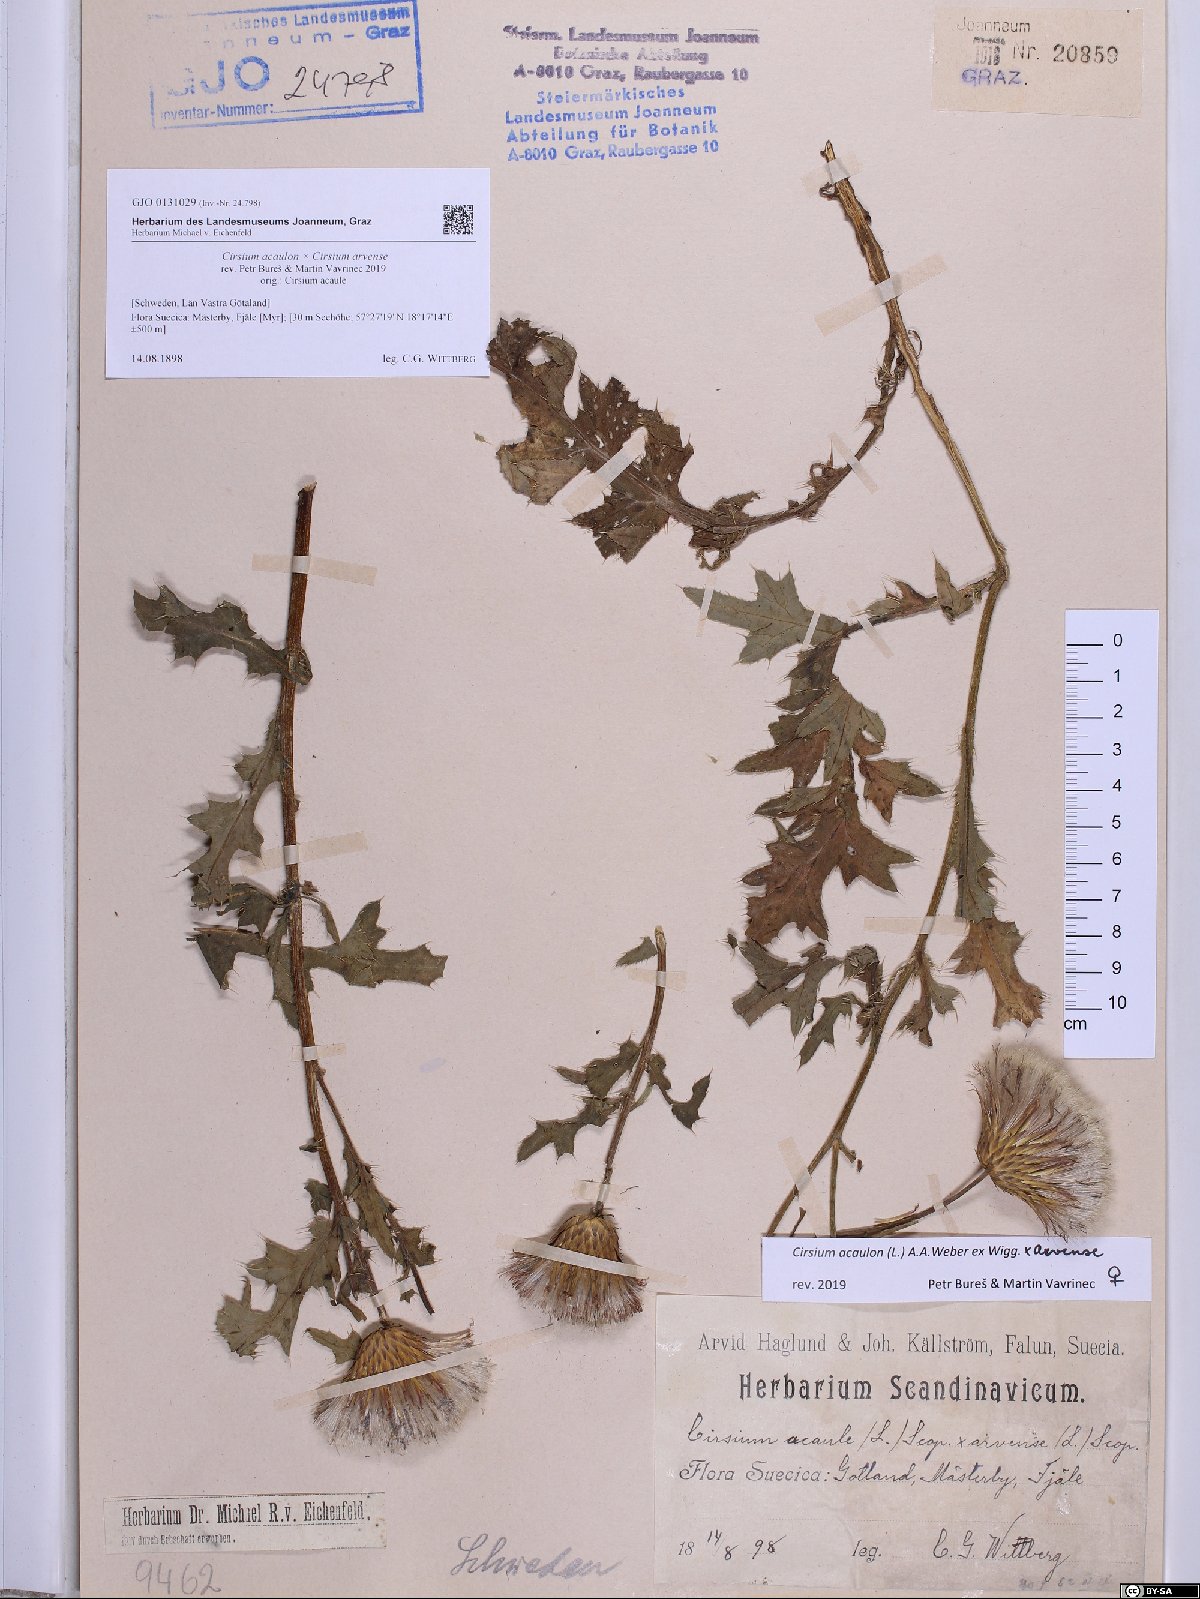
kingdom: Plantae
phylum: Tracheophyta
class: Magnoliopsida
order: Asterales
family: Asteraceae
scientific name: Asteraceae
